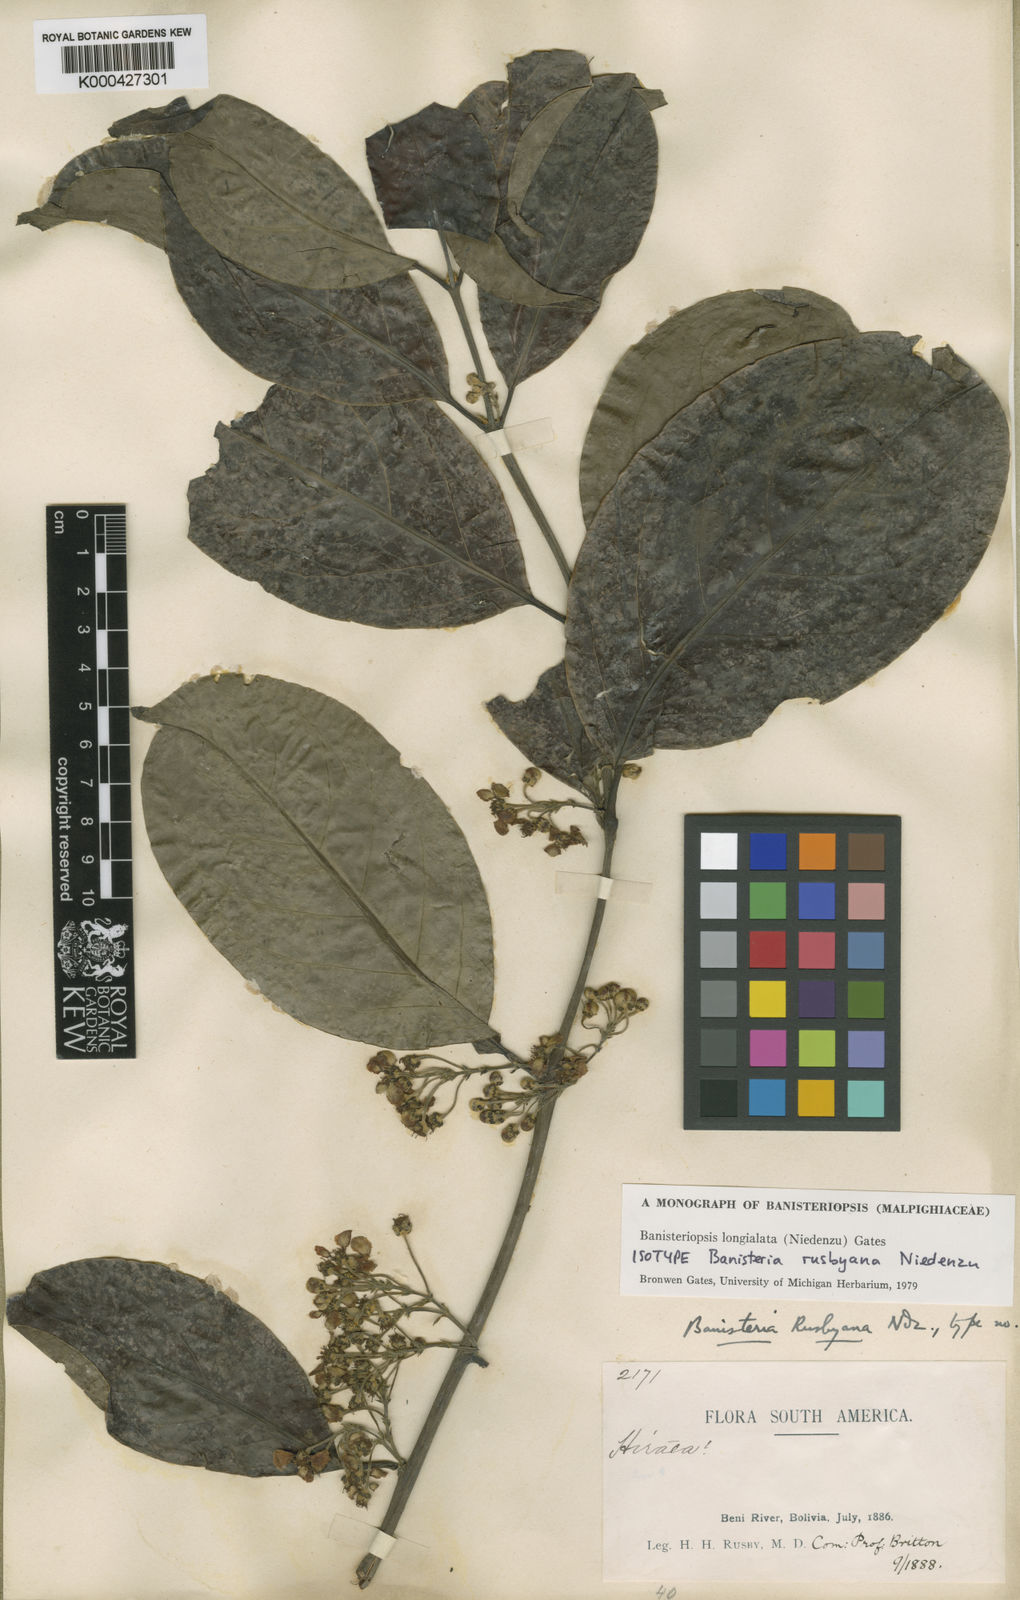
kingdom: Plantae
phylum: Tracheophyta
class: Magnoliopsida
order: Malpighiales
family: Malpighiaceae
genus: Diplopterys
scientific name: Diplopterys longialata
